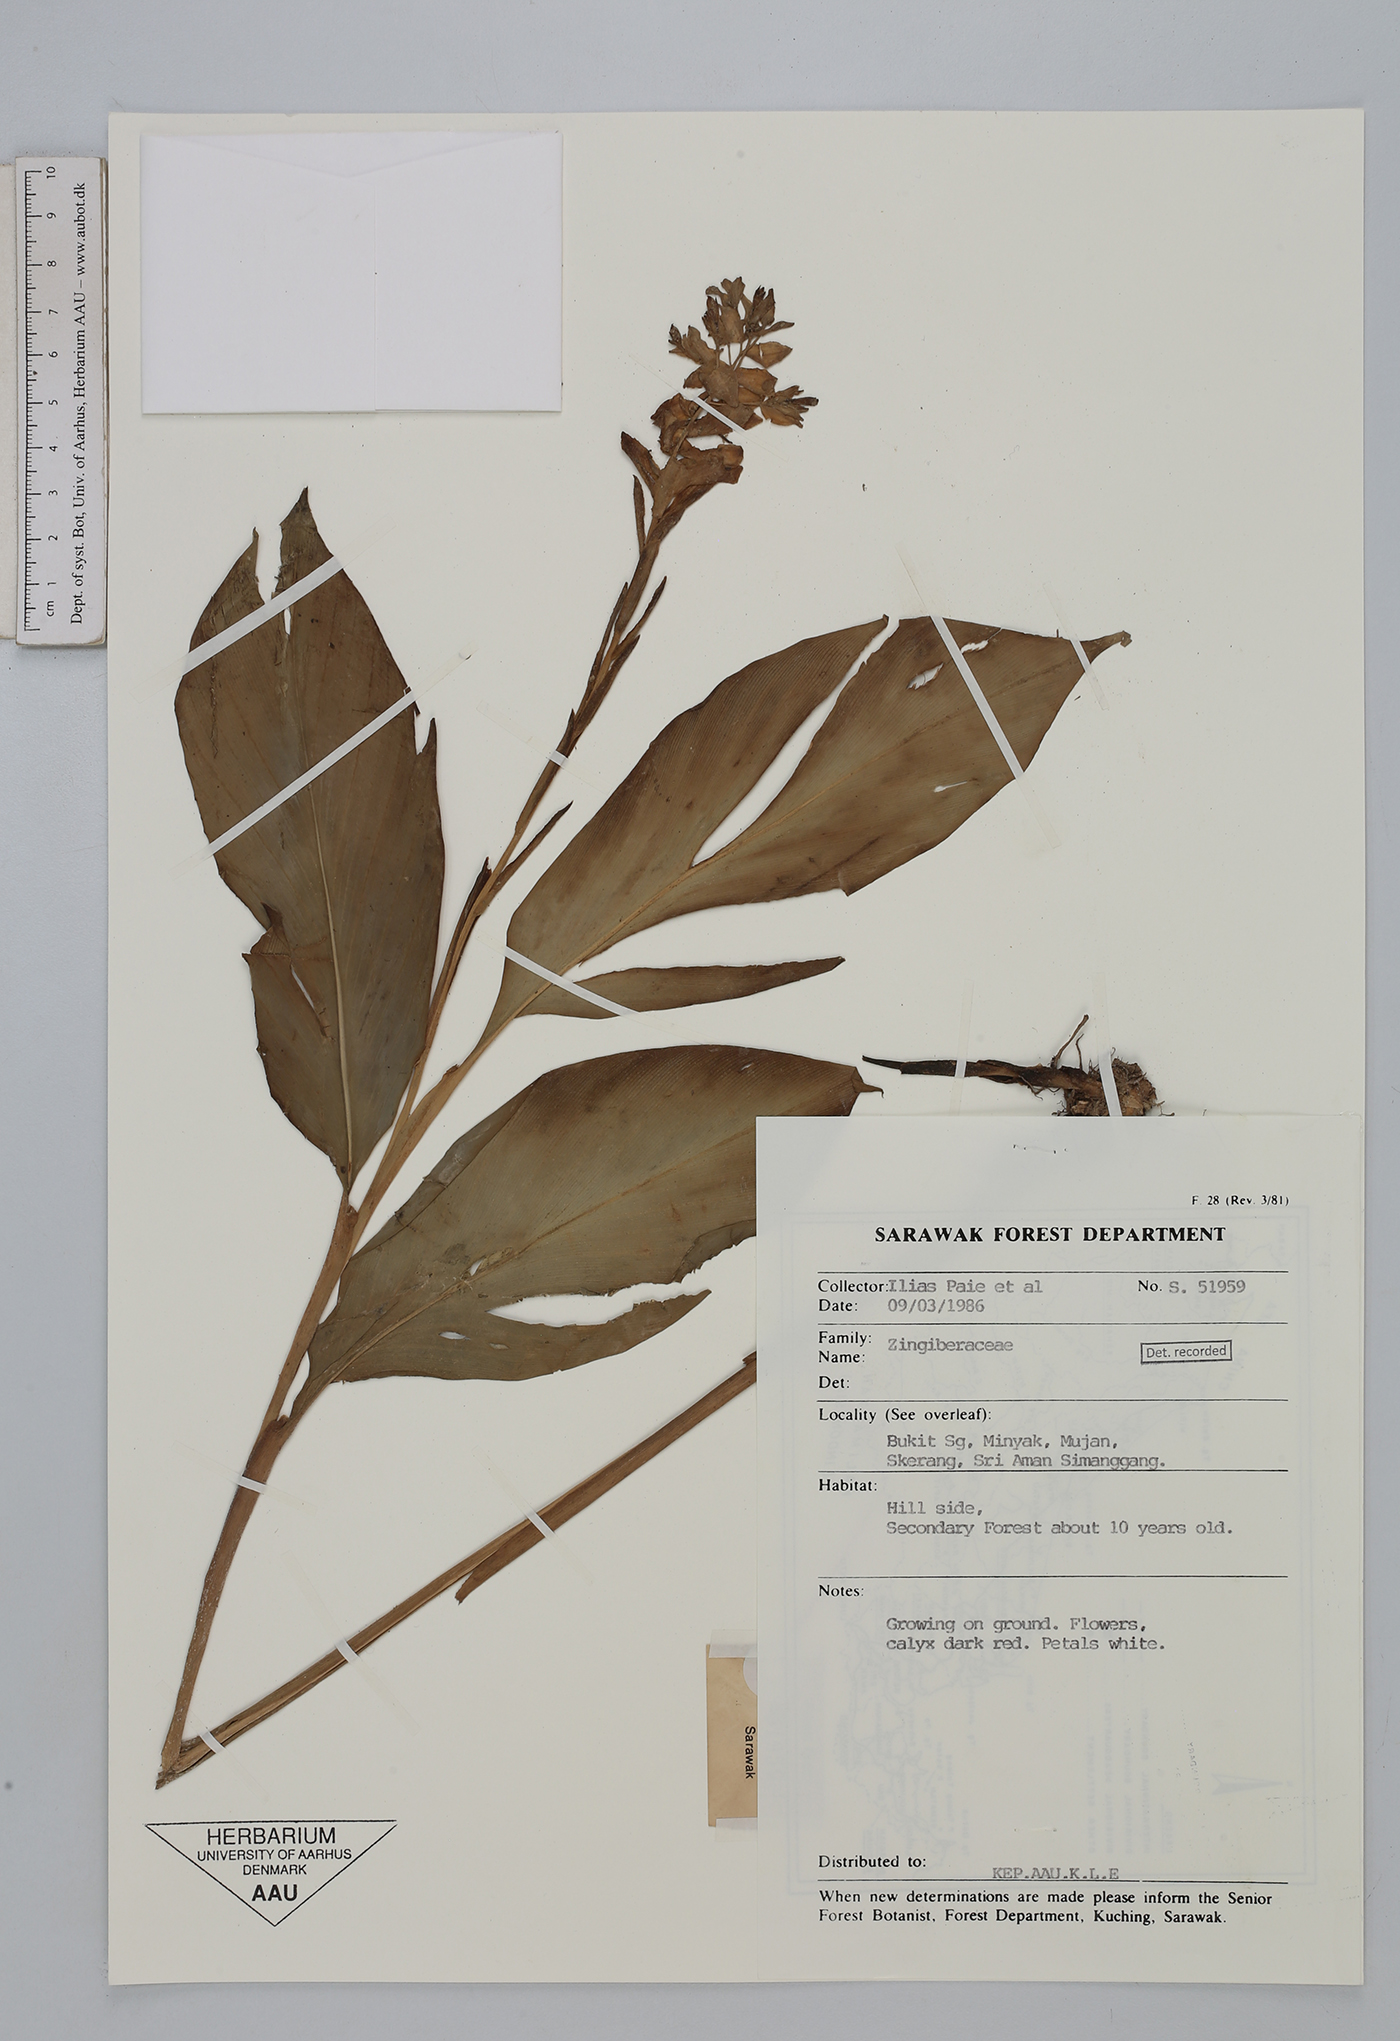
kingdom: Plantae
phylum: Tracheophyta
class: Liliopsida
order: Zingiberales
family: Zingiberaceae
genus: Globba
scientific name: Globba atrosanguinea
